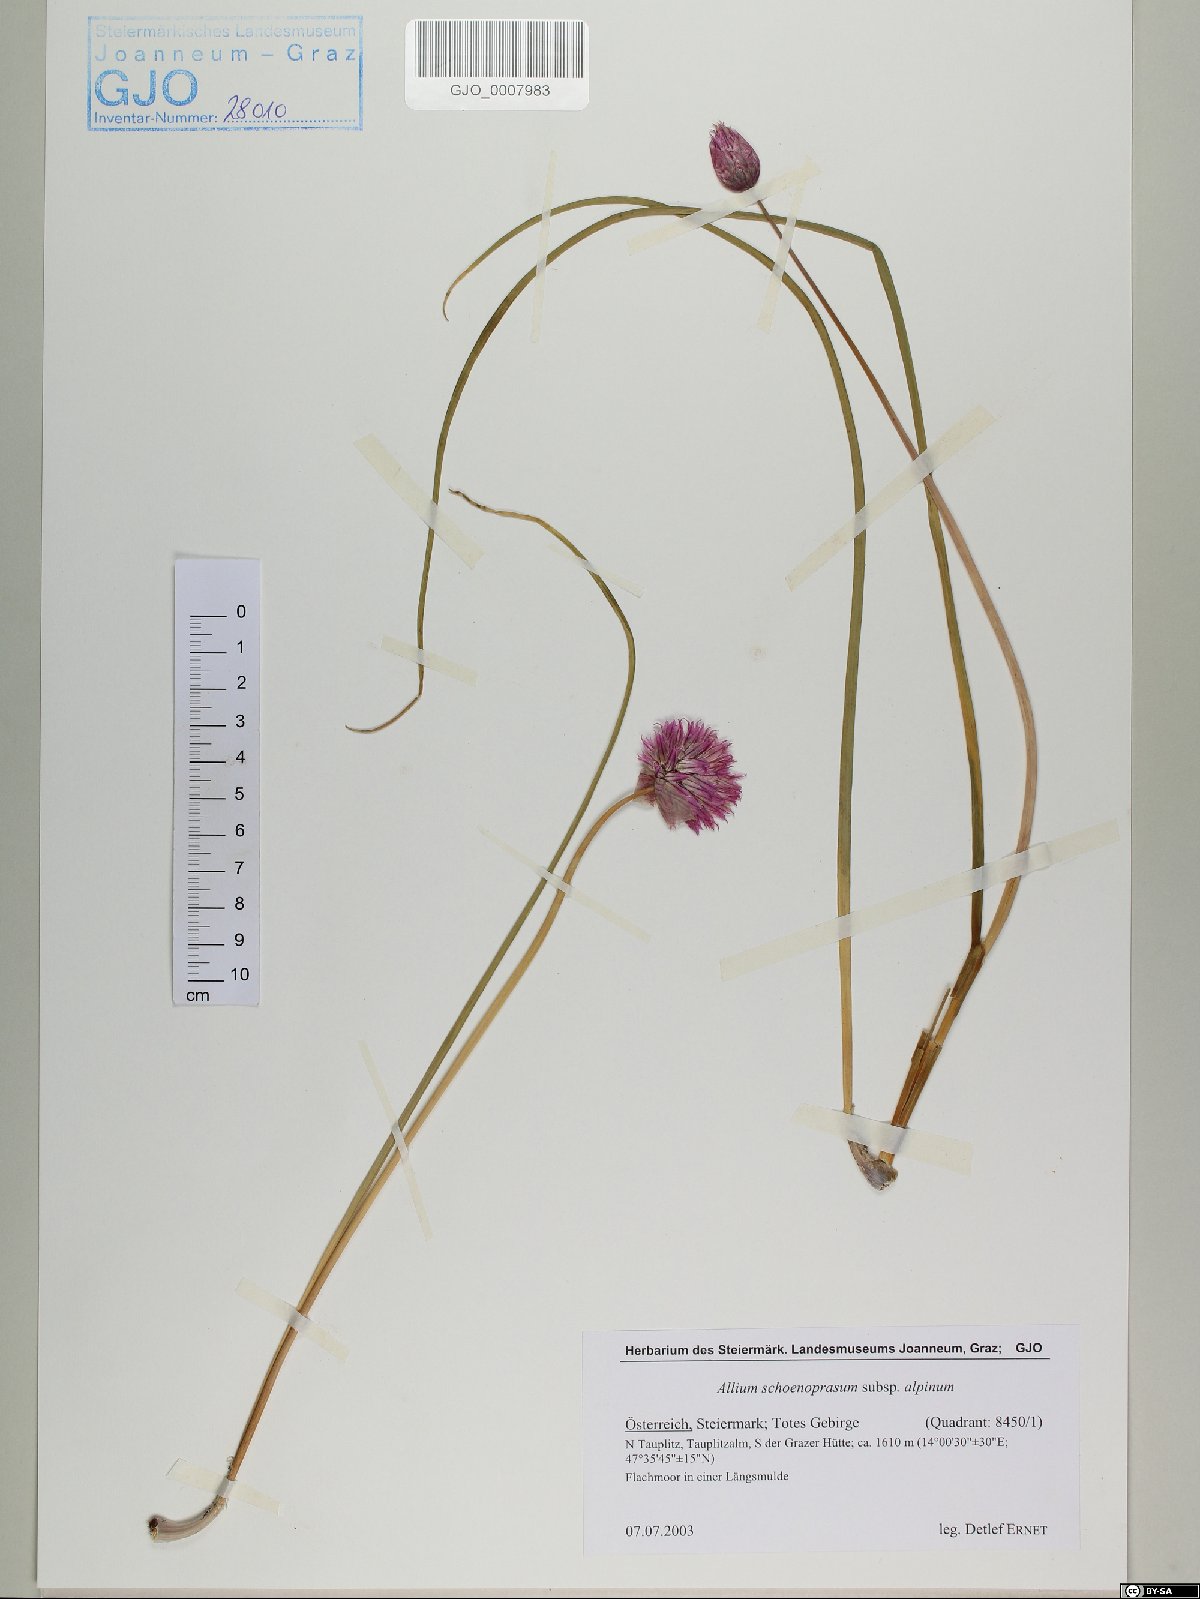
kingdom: Plantae
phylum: Tracheophyta
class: Liliopsida
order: Asparagales
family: Amaryllidaceae
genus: Allium
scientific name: Allium schoenoprasum
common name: Chives
